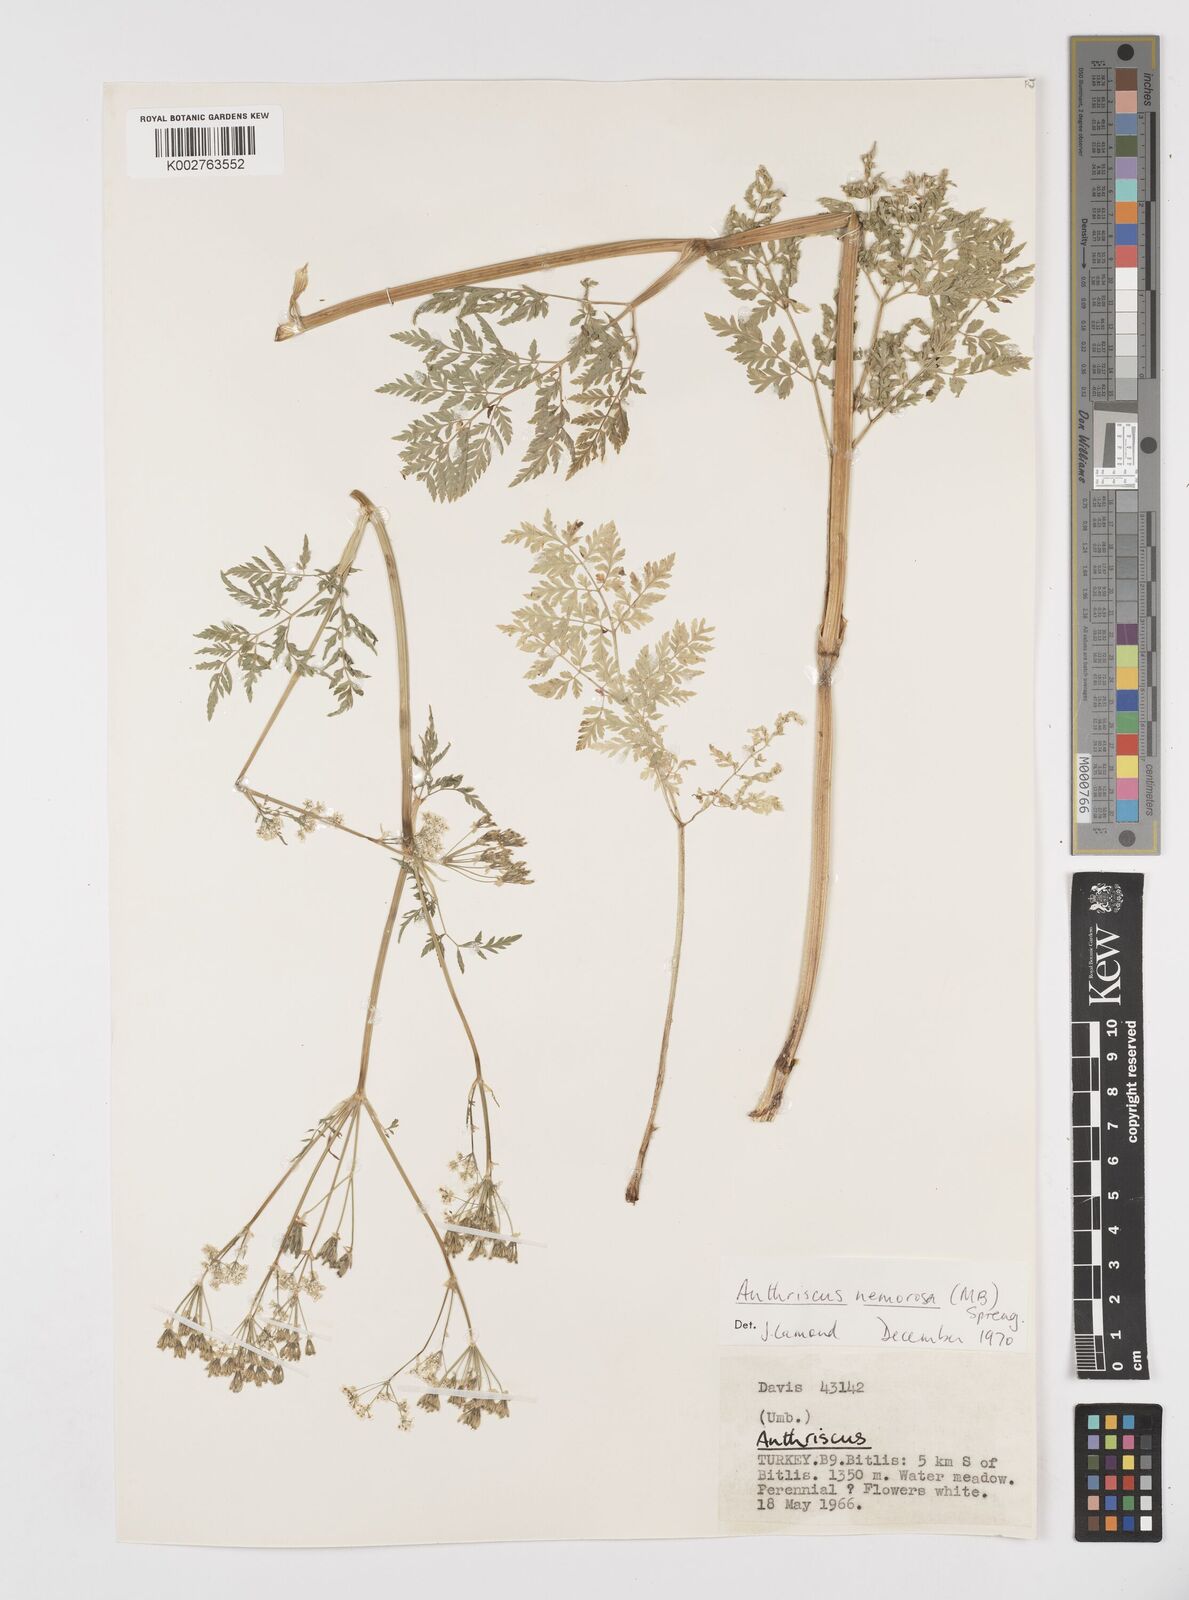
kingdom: Plantae
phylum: Tracheophyta
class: Magnoliopsida
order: Apiales
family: Apiaceae
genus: Anthriscus
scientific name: Anthriscus sylvestris
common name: Cow parsley
